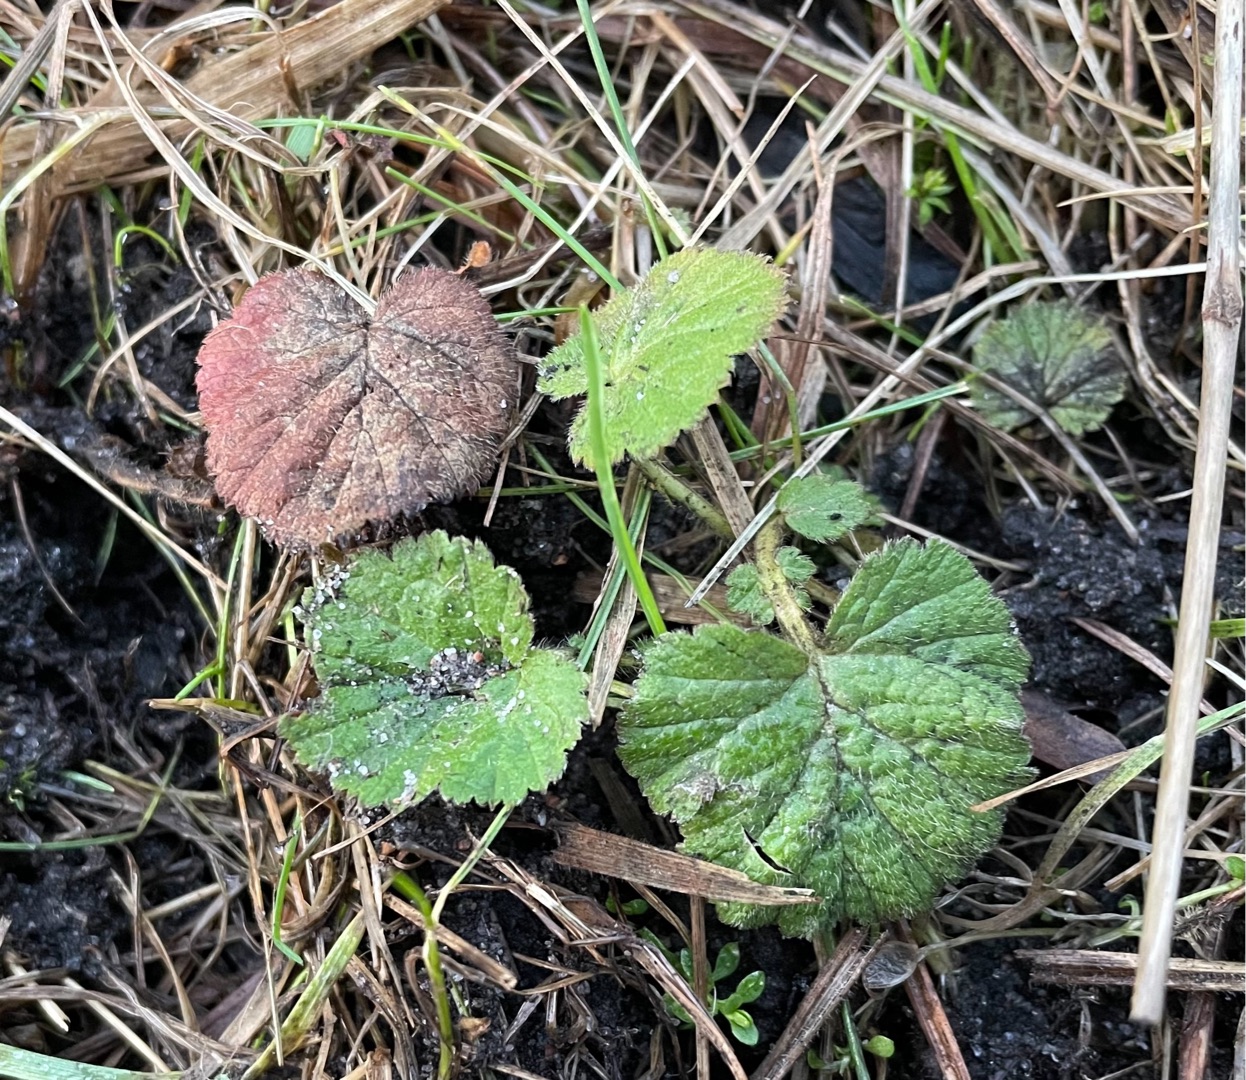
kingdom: Plantae
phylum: Tracheophyta
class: Magnoliopsida
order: Rosales
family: Rosaceae
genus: Geum
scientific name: Geum rivale
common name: Eng-nellikerod
